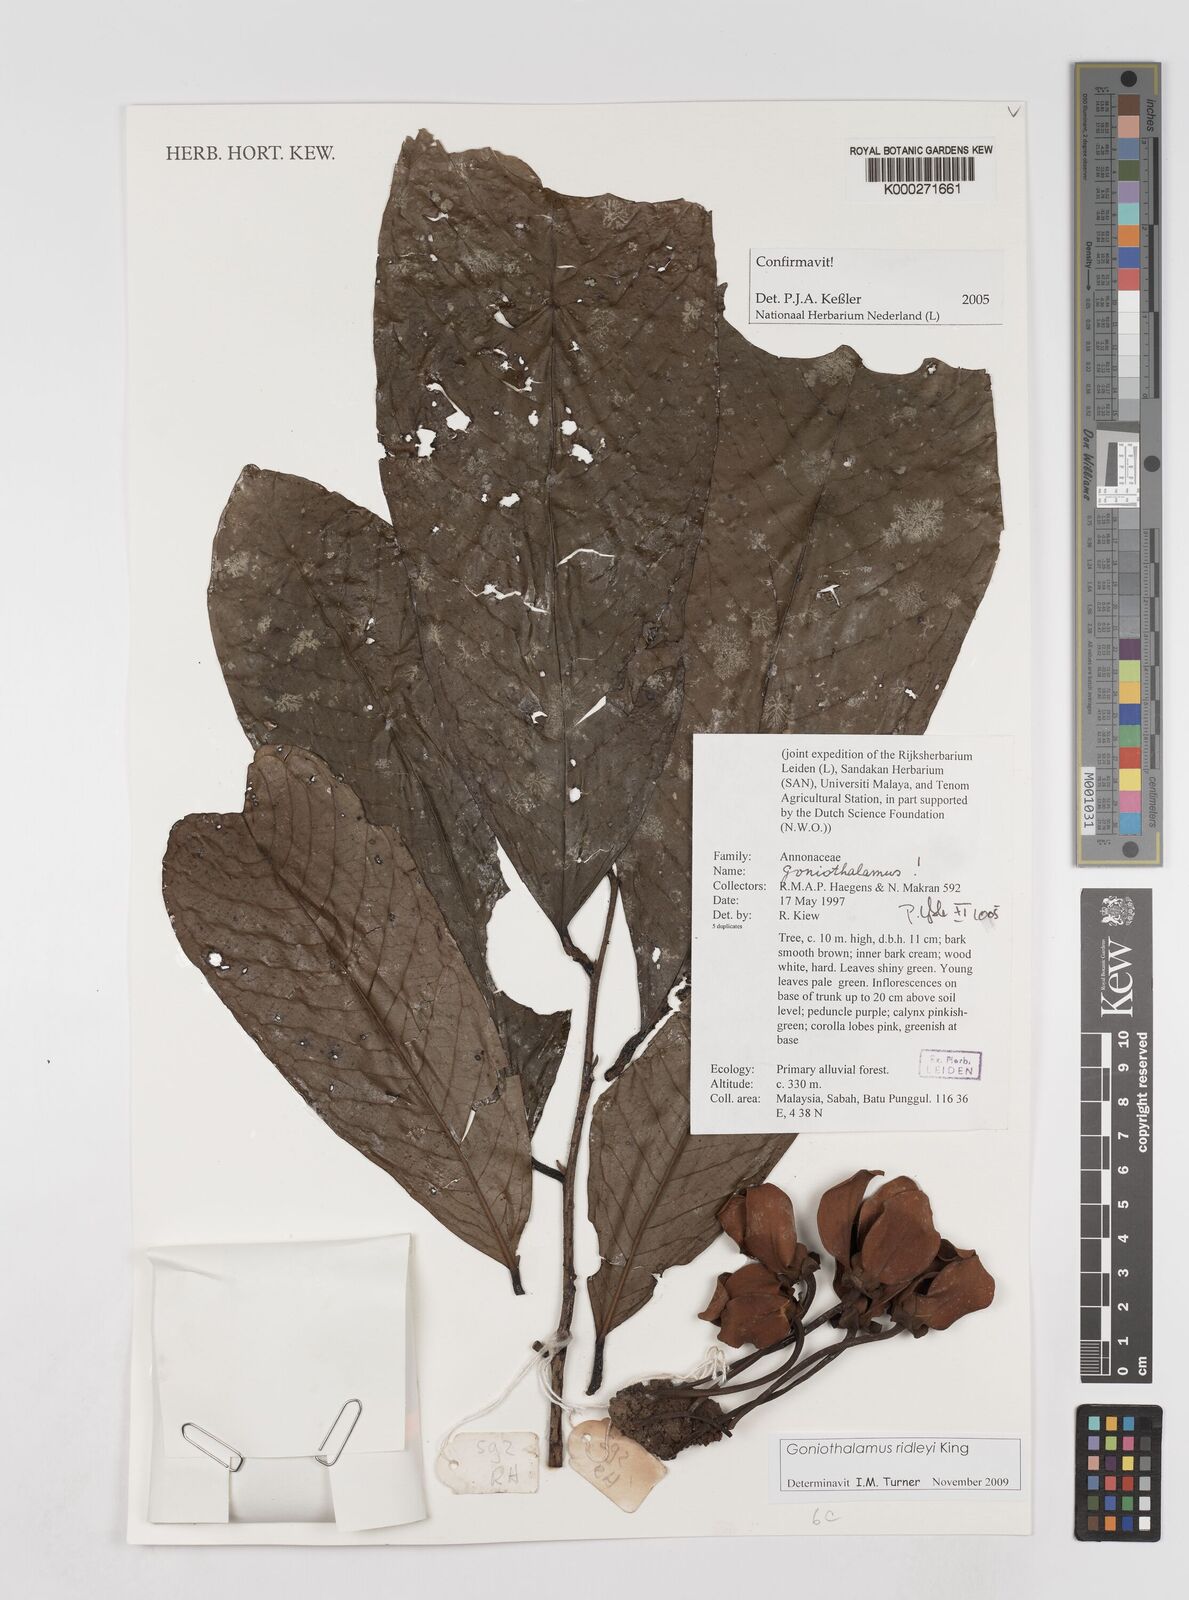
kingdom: Plantae
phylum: Tracheophyta
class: Magnoliopsida
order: Magnoliales
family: Annonaceae
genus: Goniothalamus
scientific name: Goniothalamus
